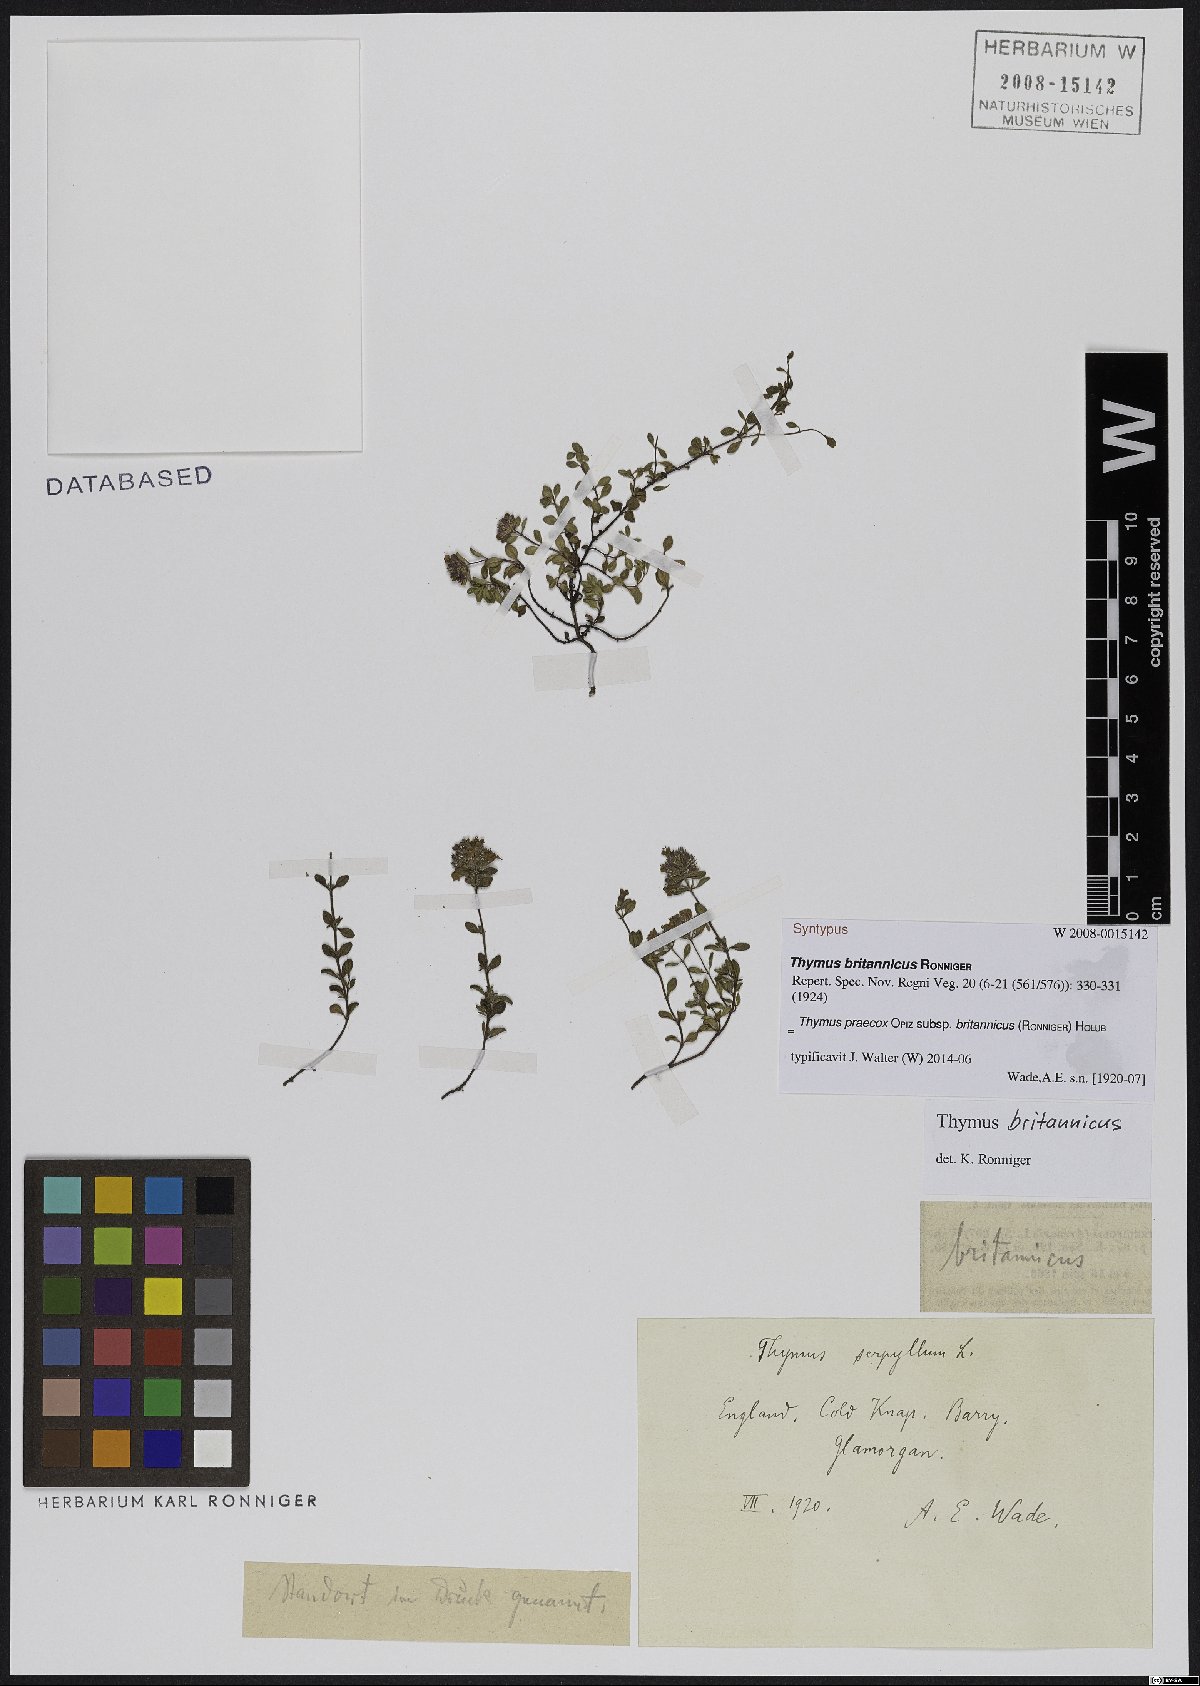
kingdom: Plantae
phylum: Tracheophyta
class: Magnoliopsida
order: Lamiales
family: Lamiaceae
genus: Thymus
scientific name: Thymus praecox
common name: Wild thyme
